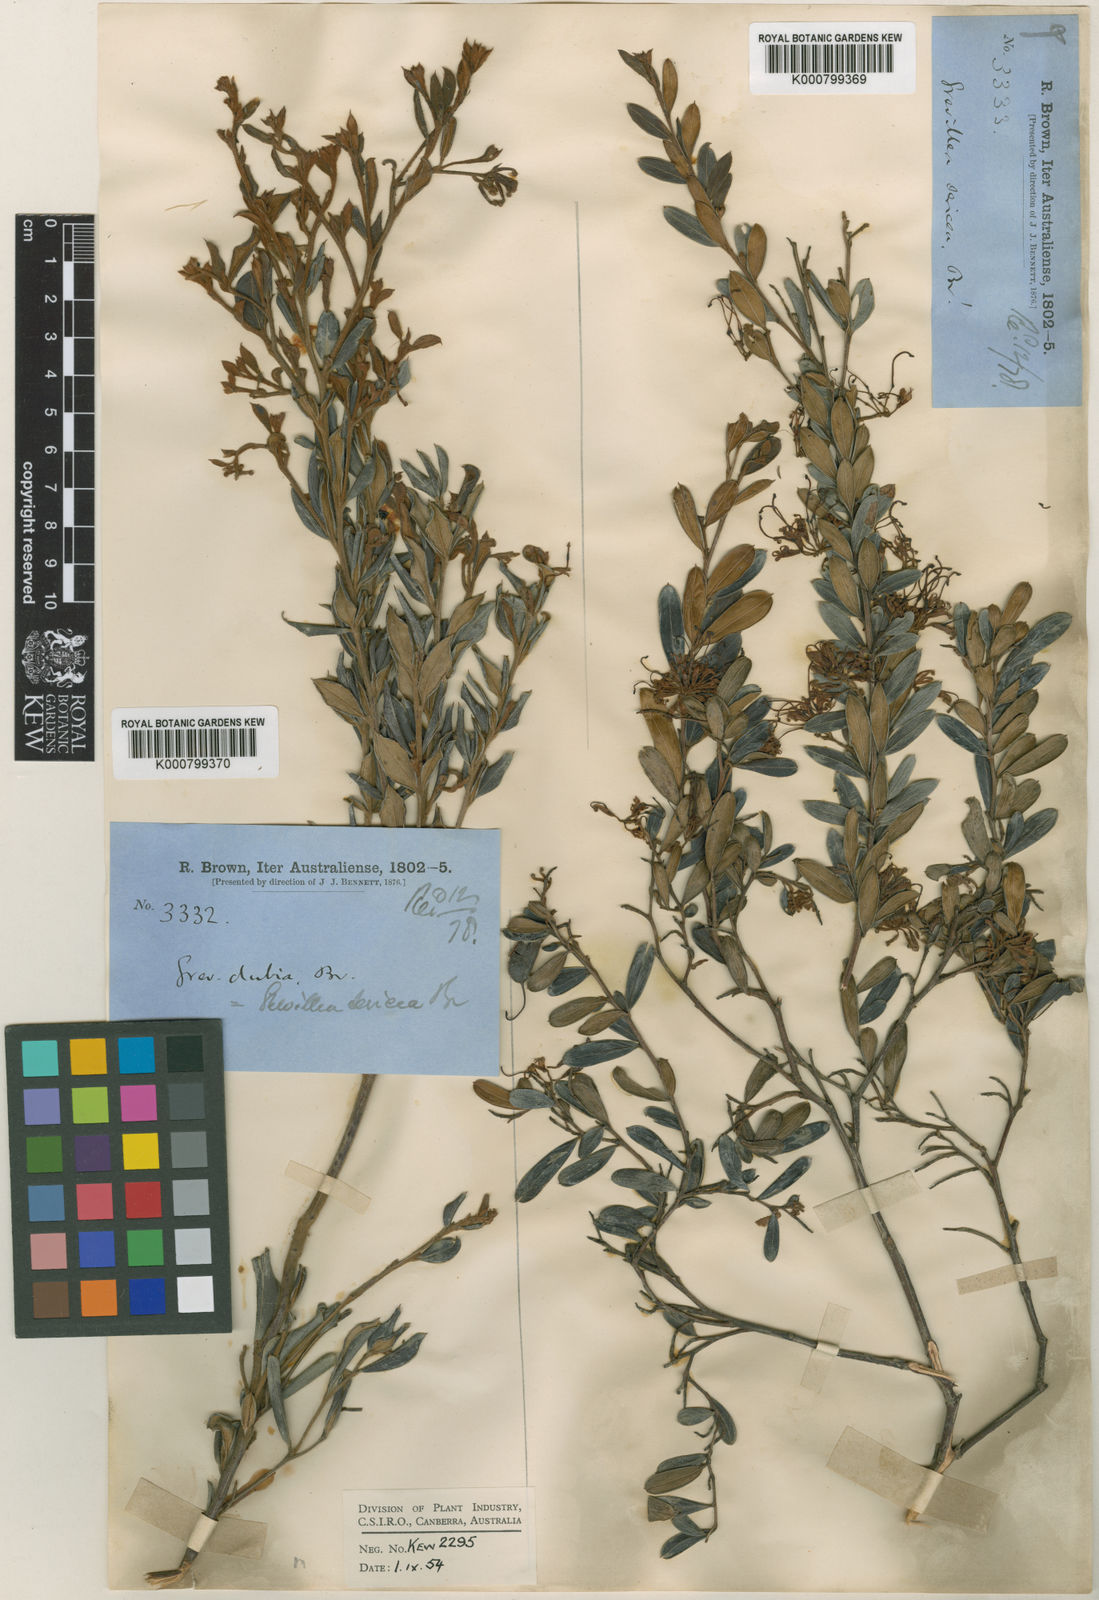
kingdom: Plantae
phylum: Tracheophyta
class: Magnoliopsida
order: Proteales
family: Proteaceae
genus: Grevillea
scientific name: Grevillea speciosa
